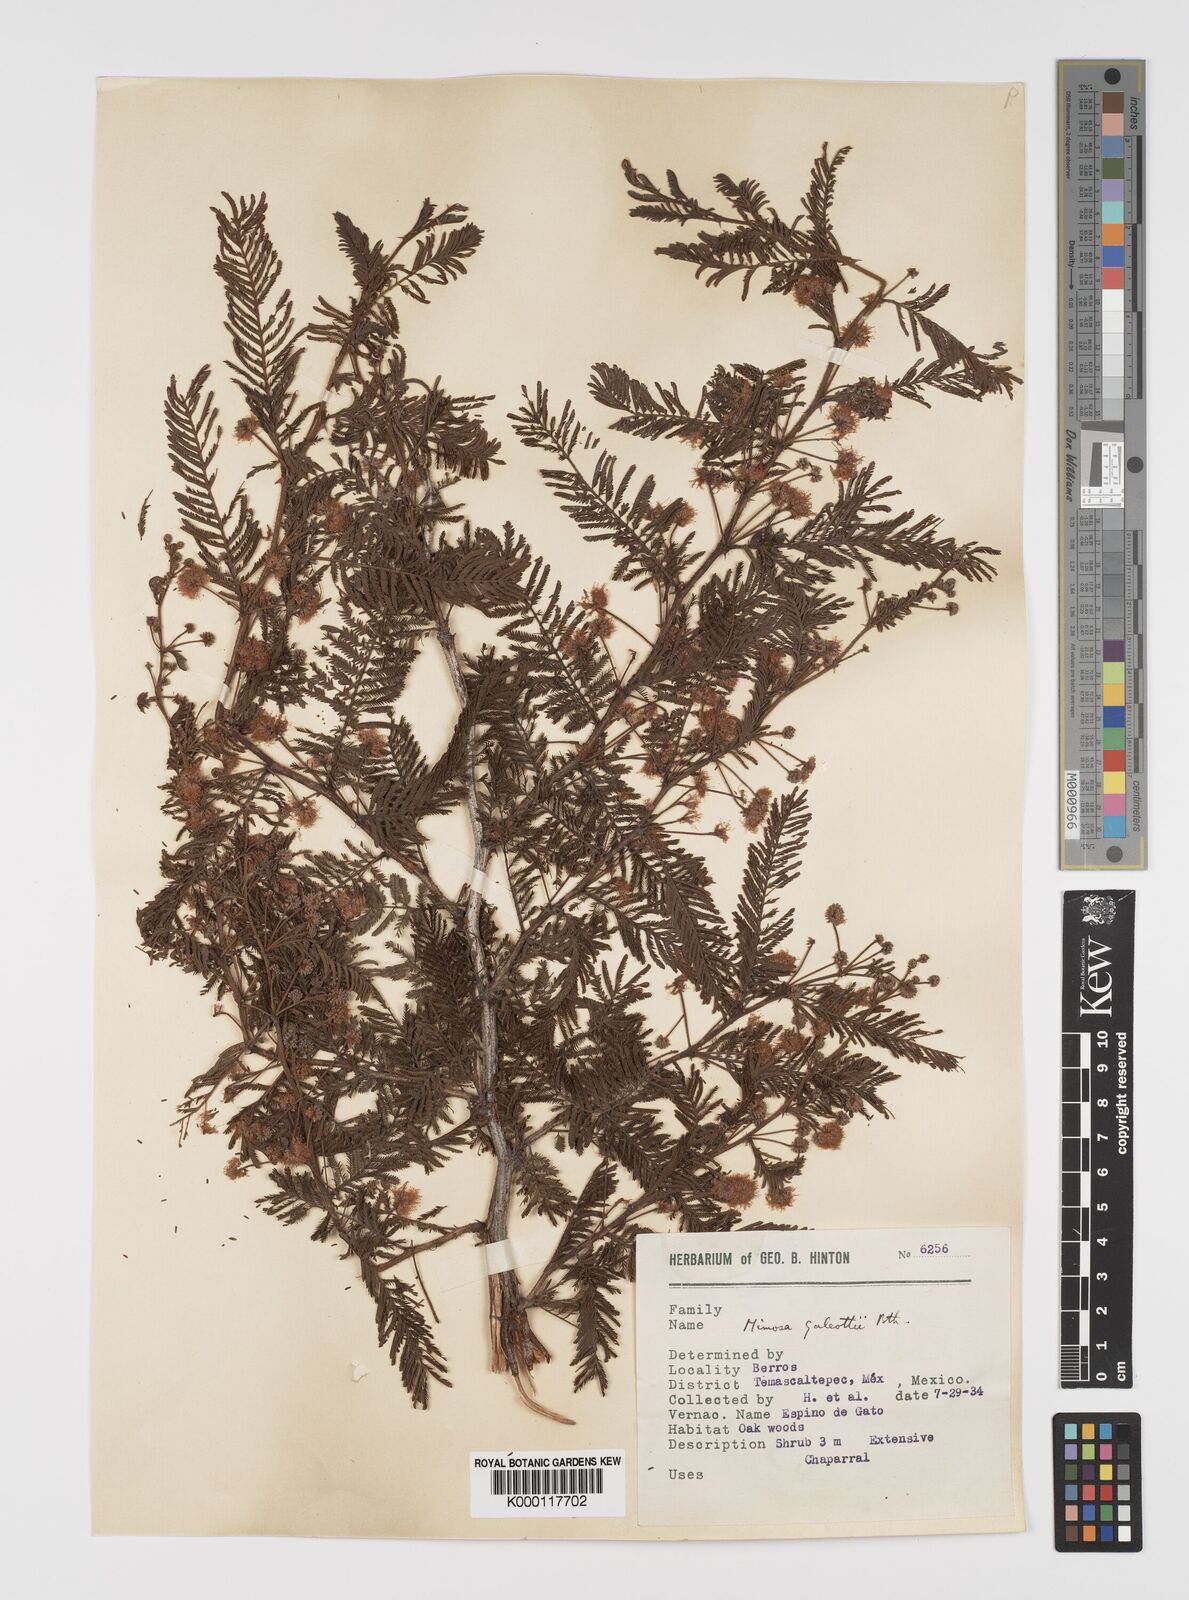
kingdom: Plantae
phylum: Tracheophyta
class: Magnoliopsida
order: Fabales
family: Fabaceae
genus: Mimosa
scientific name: Mimosa galeottii
